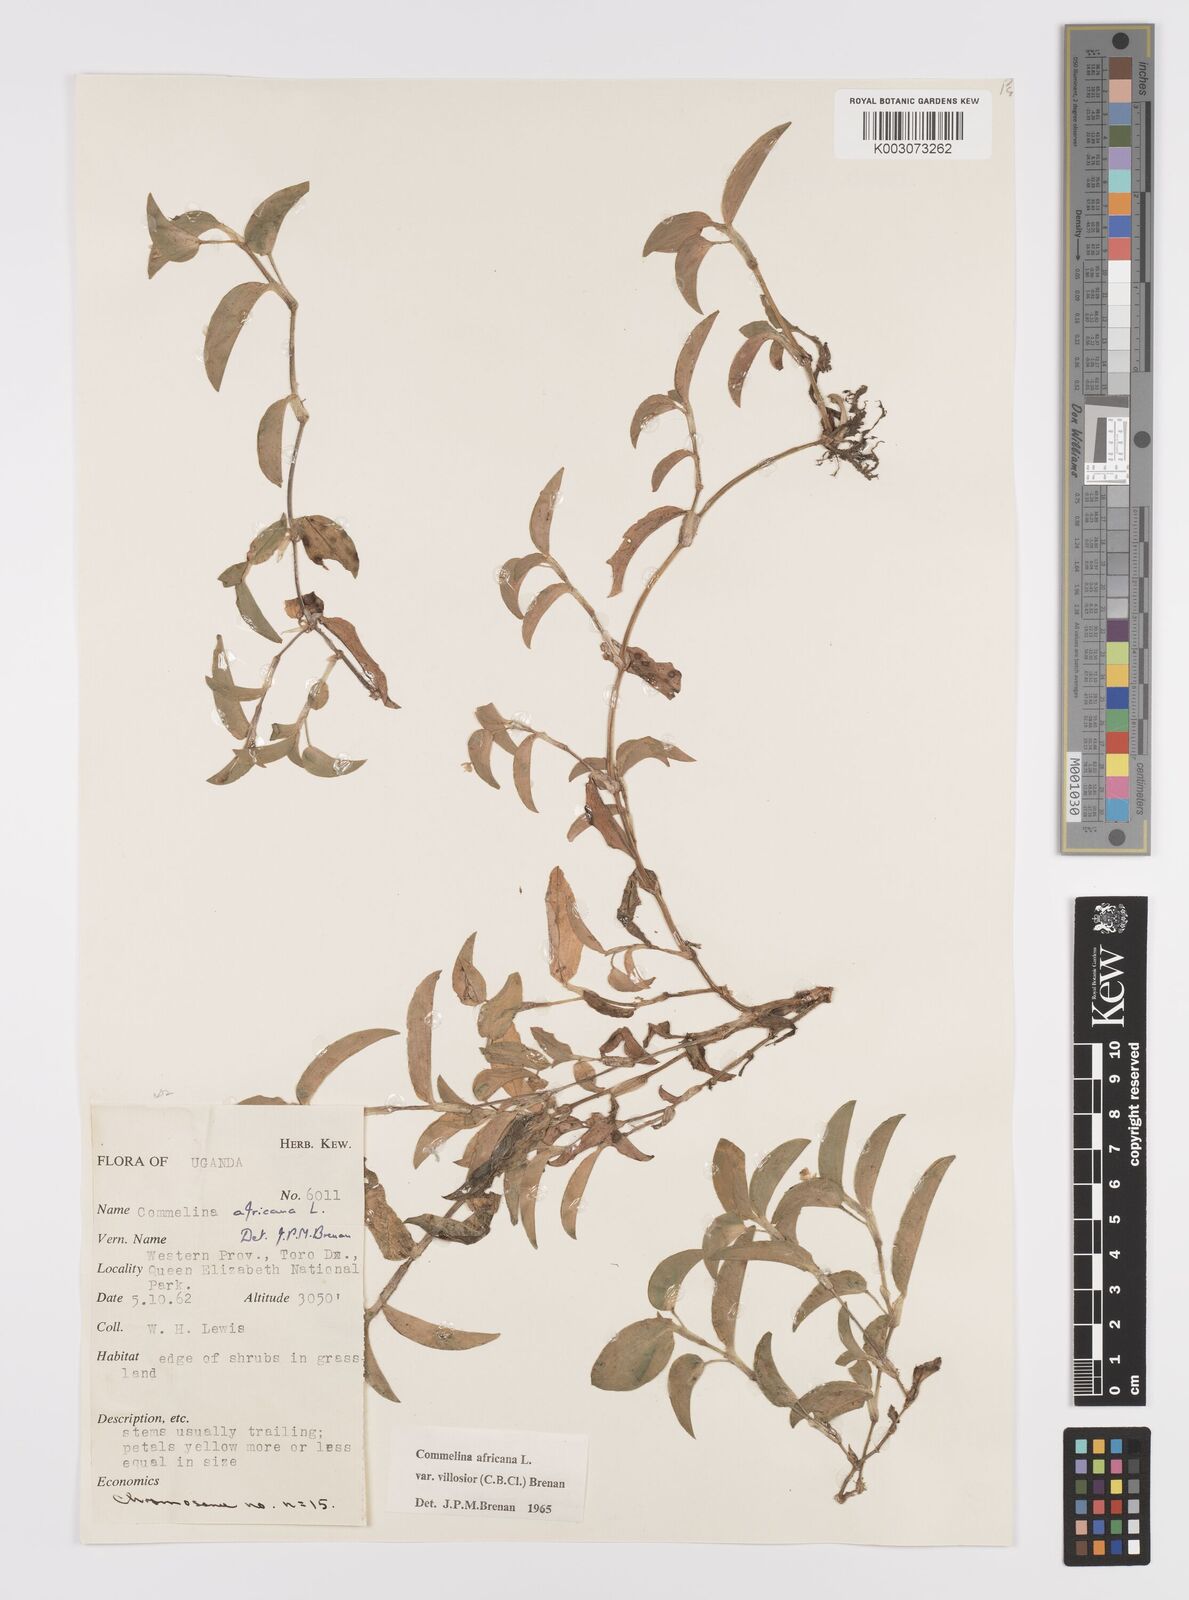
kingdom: Plantae
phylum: Tracheophyta
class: Liliopsida
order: Commelinales
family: Commelinaceae
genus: Commelina
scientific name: Commelina africana
